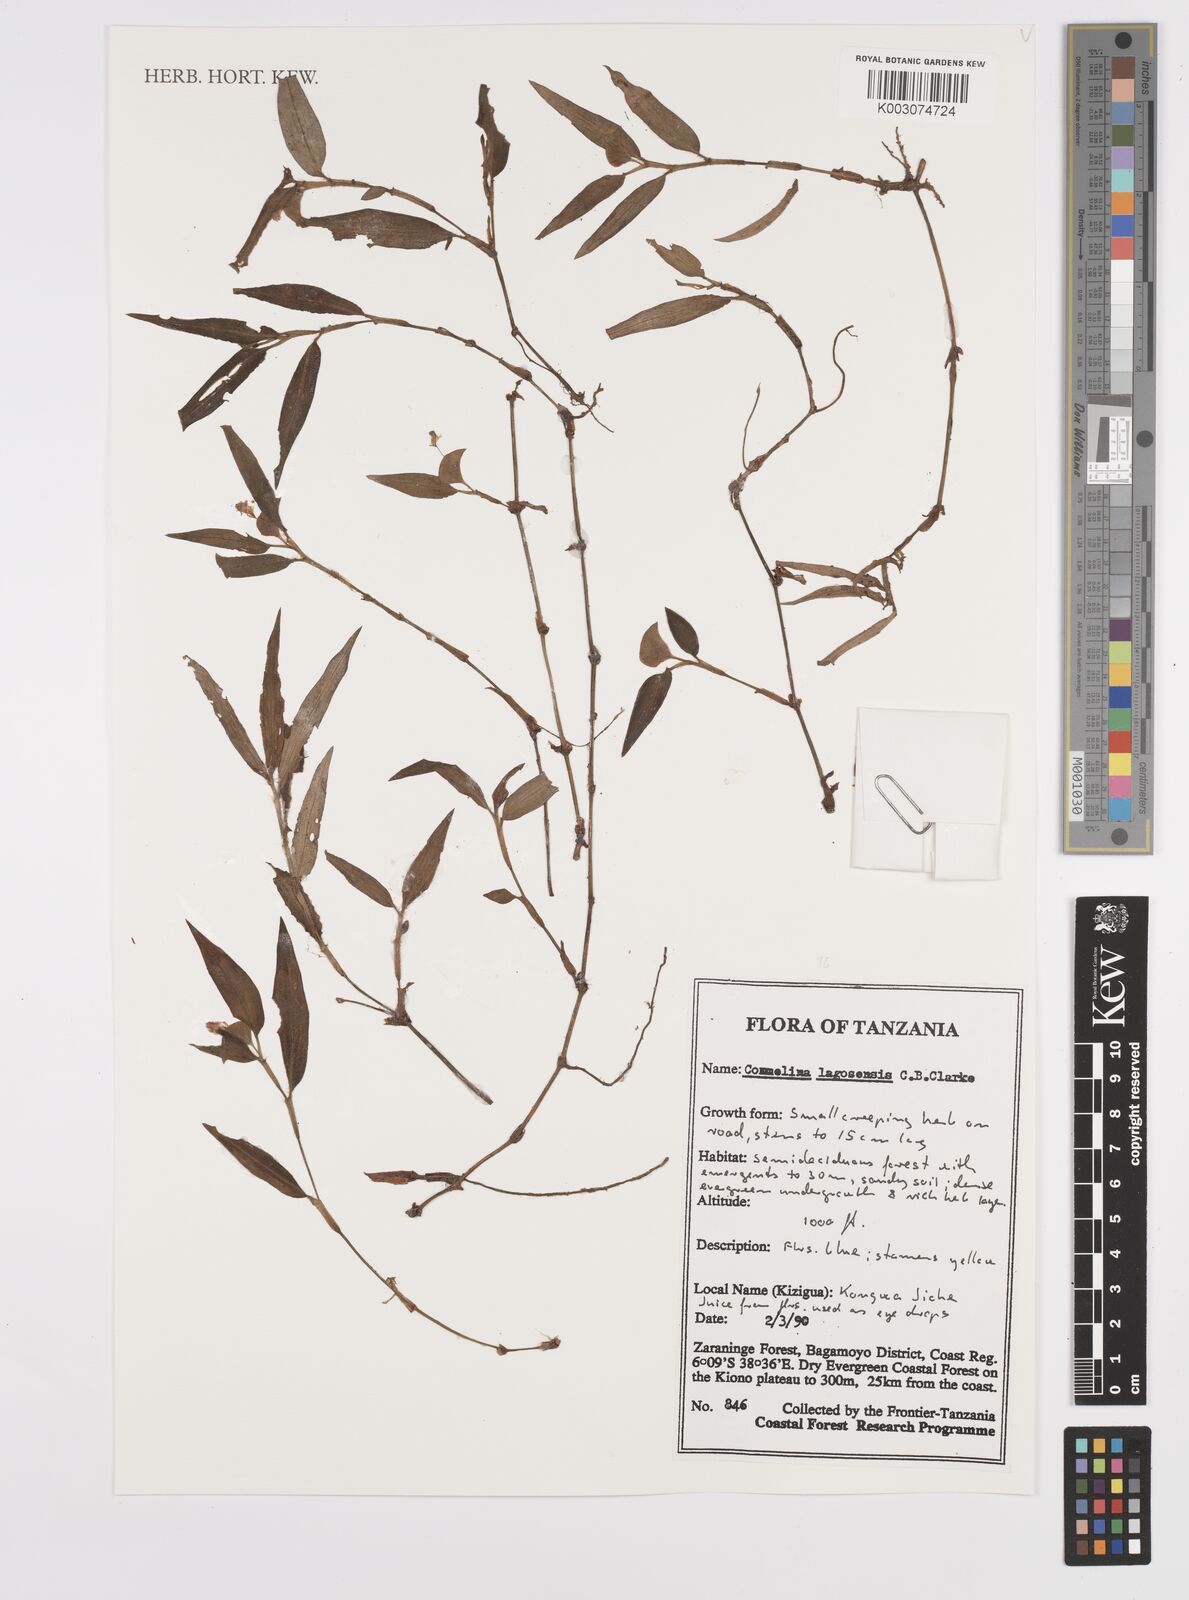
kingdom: Plantae
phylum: Tracheophyta
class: Liliopsida
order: Commelinales
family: Commelinaceae
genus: Commelina
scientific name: Commelina bracteosa
